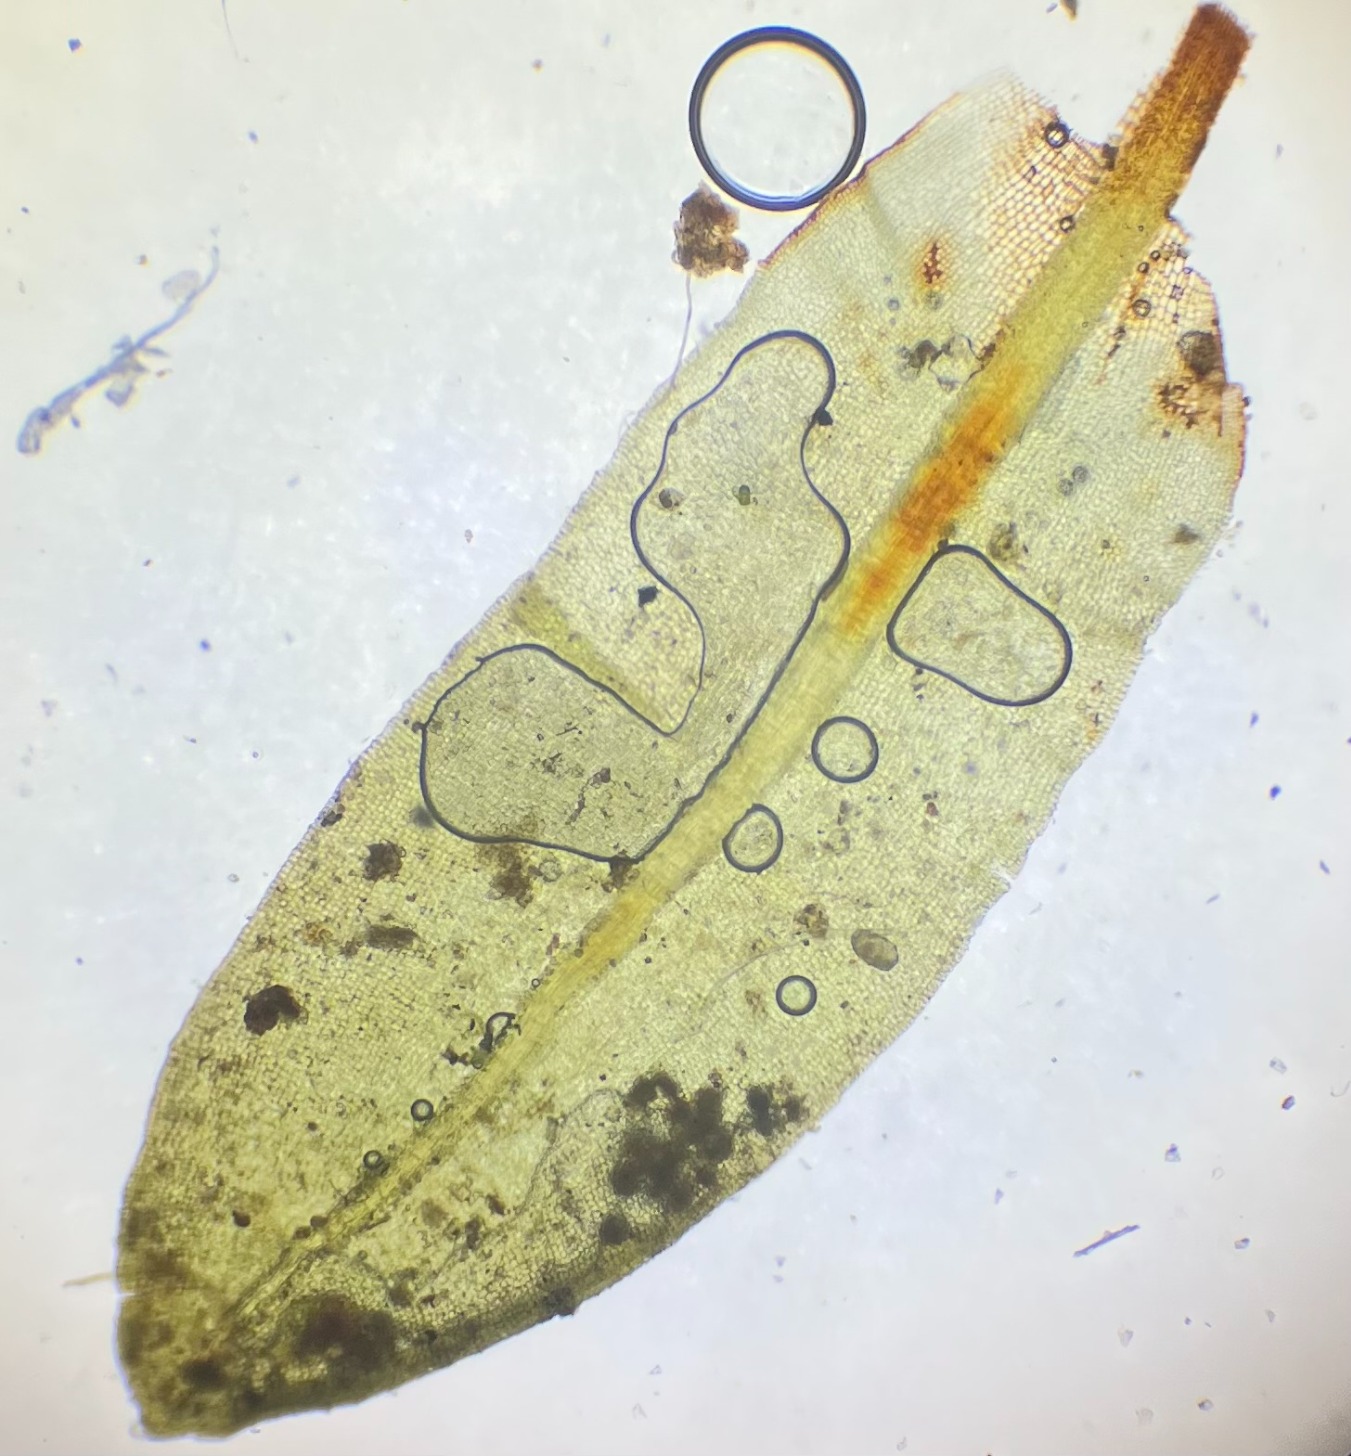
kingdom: Plantae
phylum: Bryophyta
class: Bryopsida
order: Encalyptales
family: Encalyptaceae
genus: Encalypta
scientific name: Encalypta streptocarpa
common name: Stor klokkehætte
